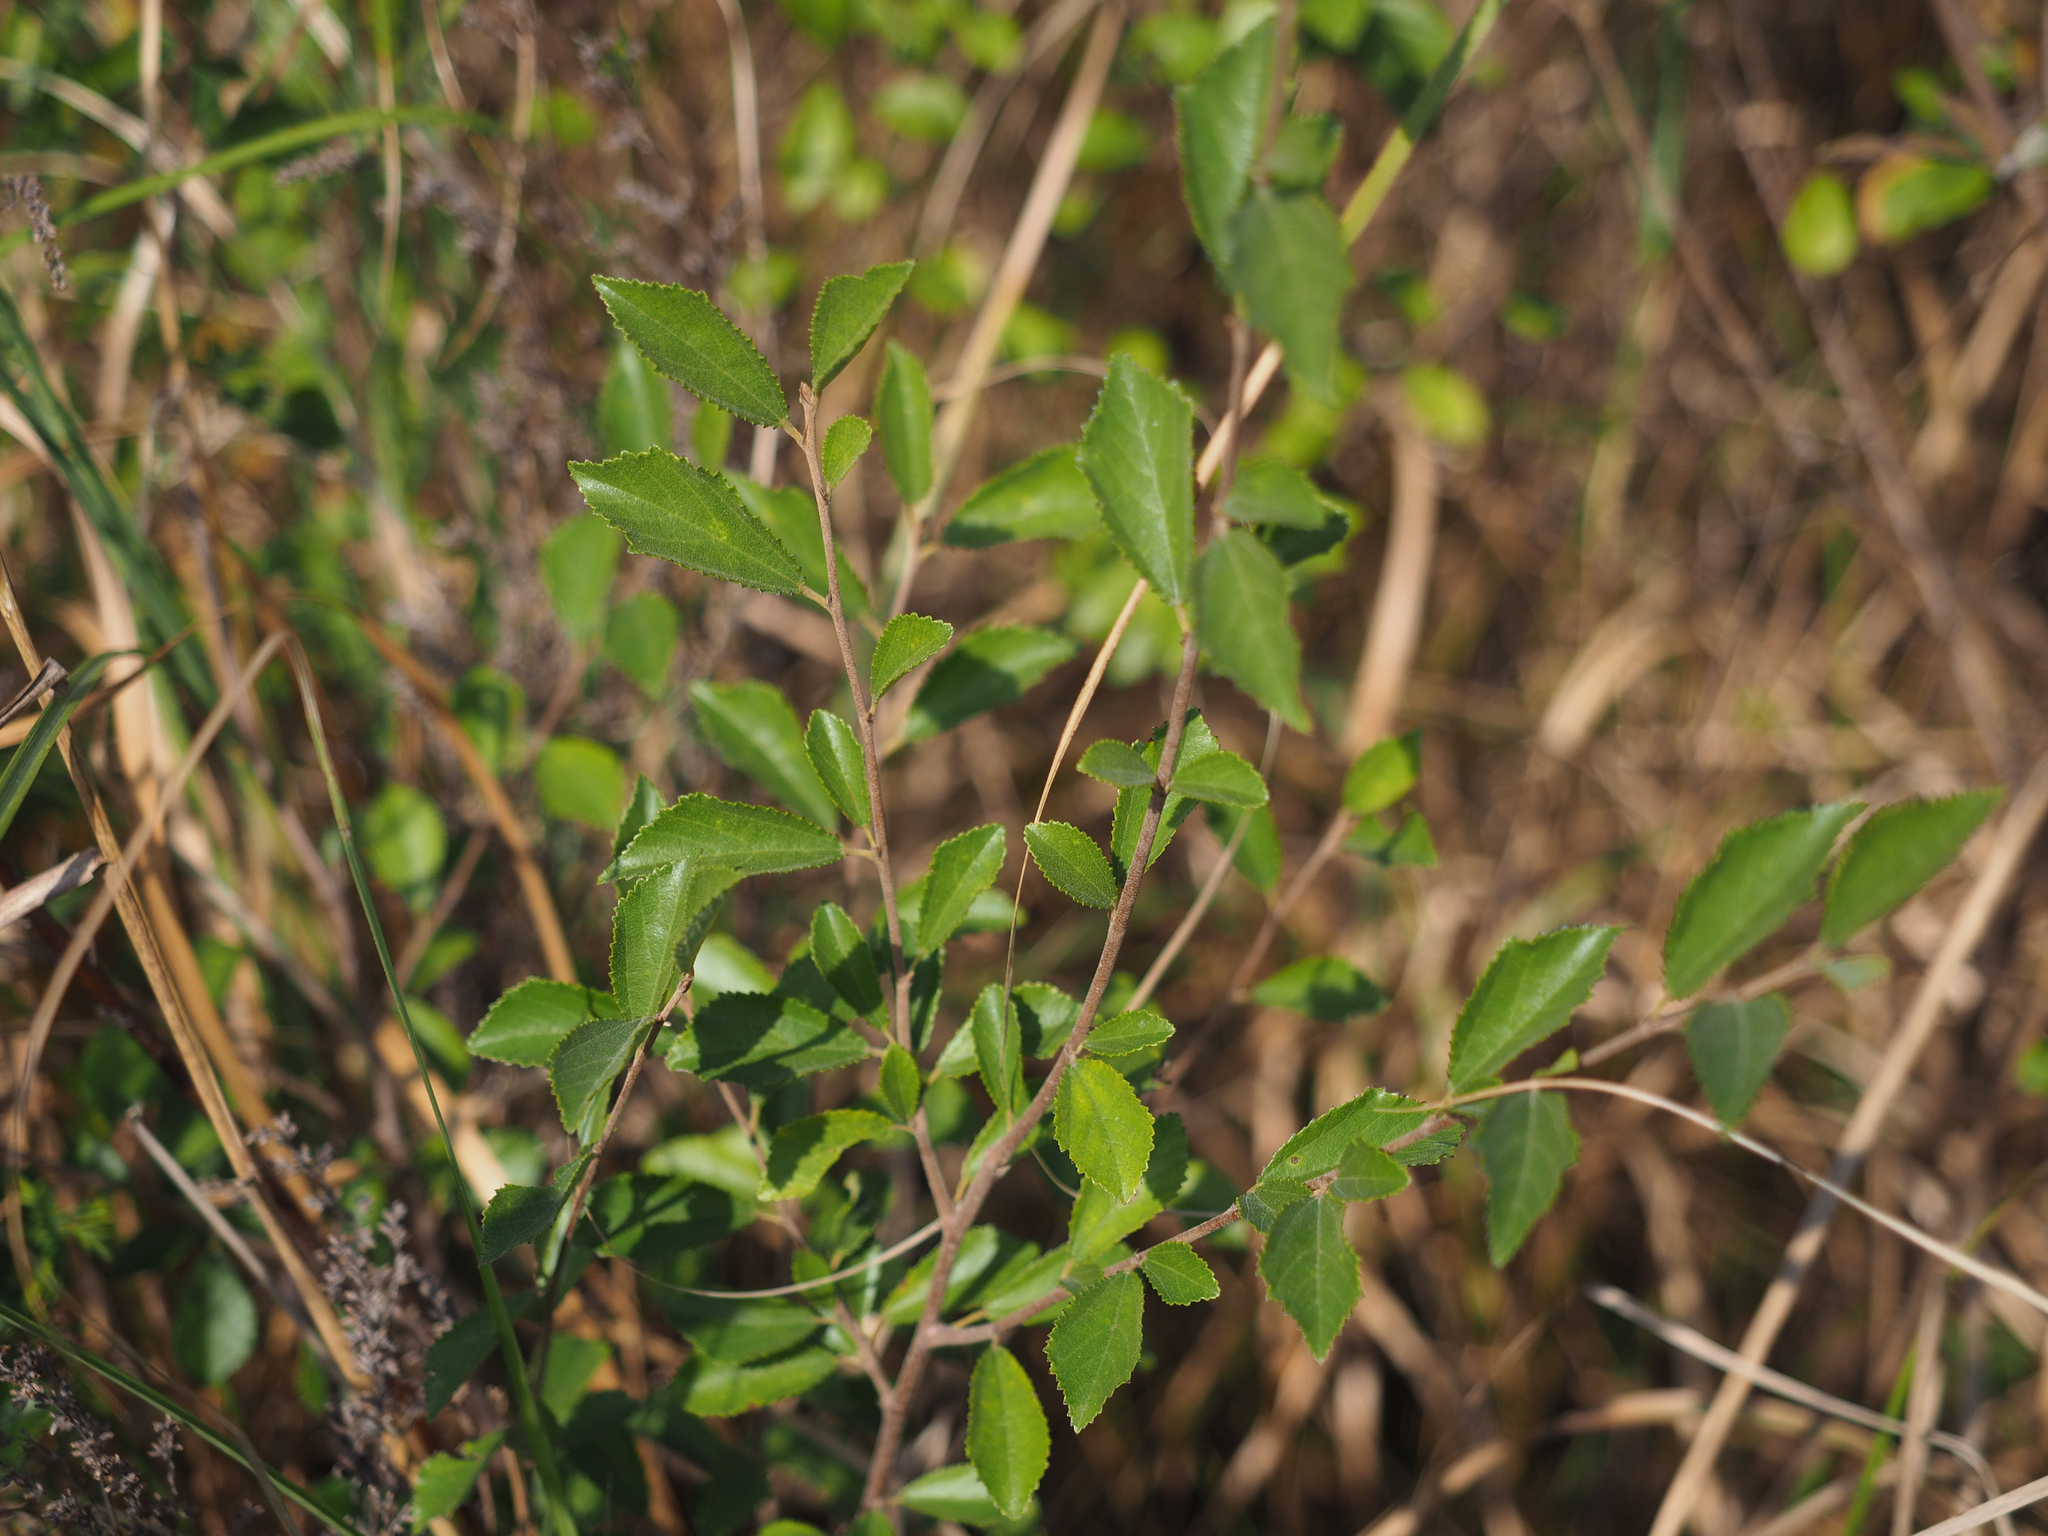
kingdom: Plantae
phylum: Tracheophyta
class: Magnoliopsida
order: Malvales
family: Malvaceae
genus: Grewia
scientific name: Grewia rhombifolia
